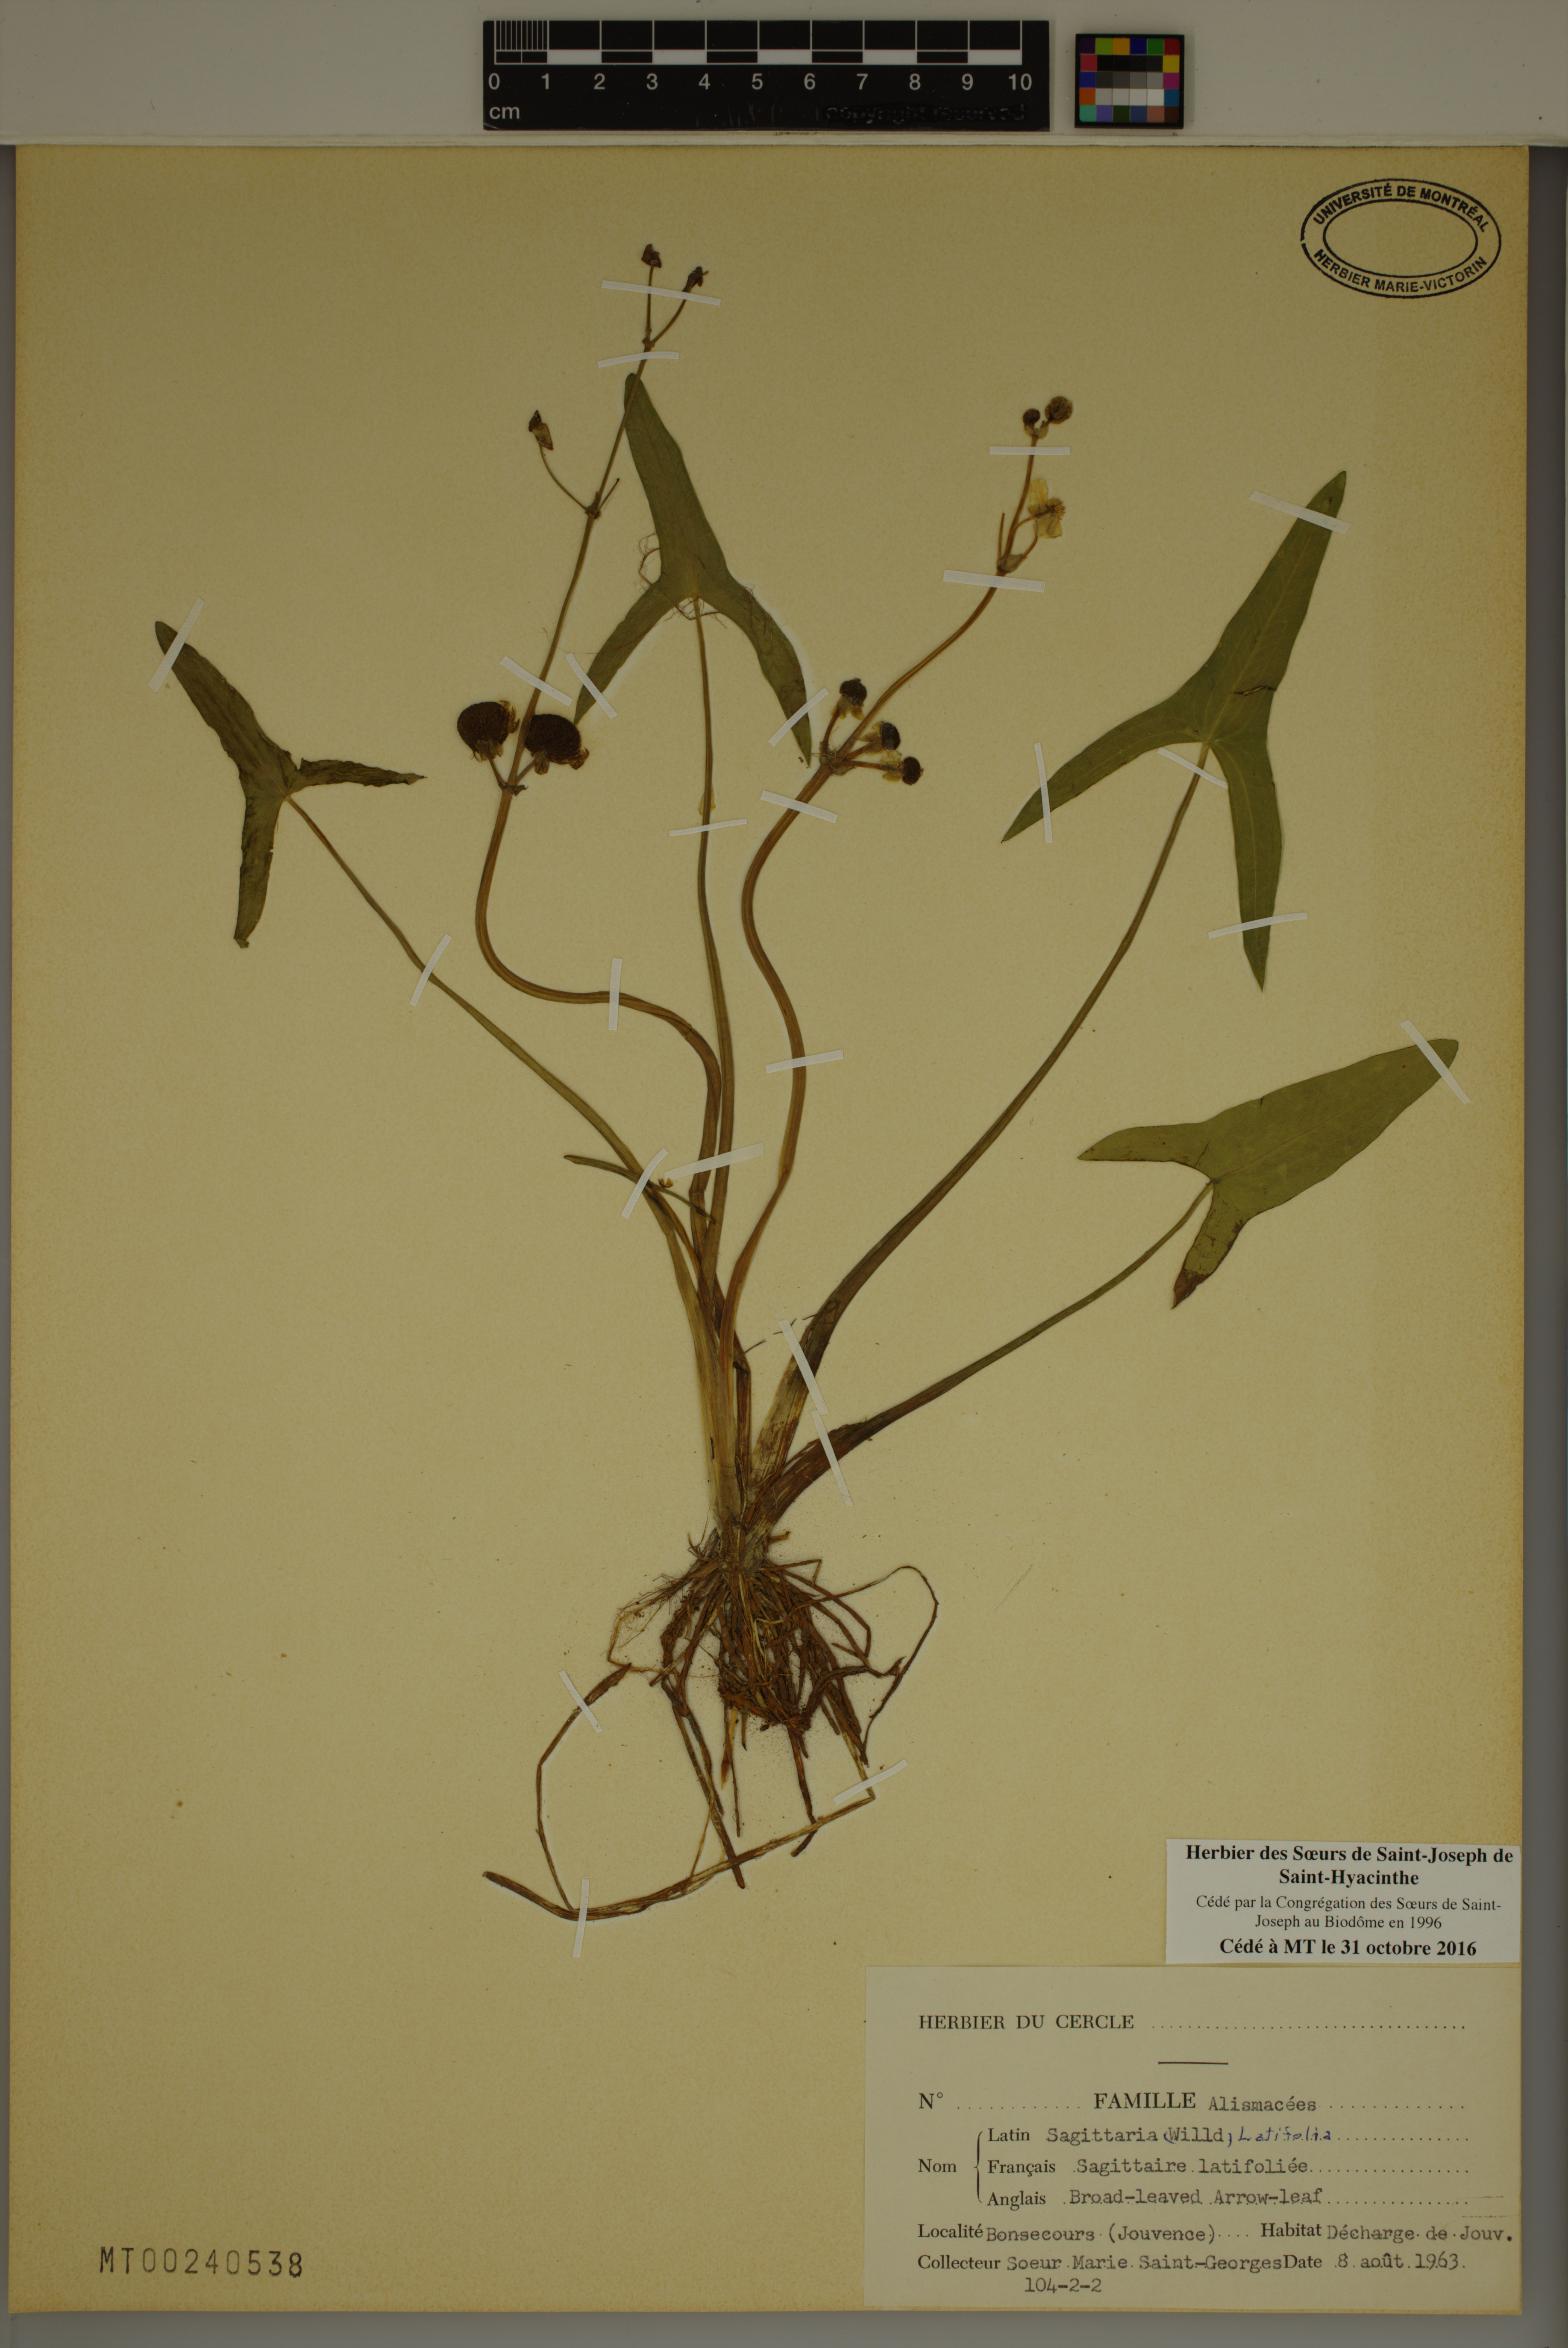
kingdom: Plantae
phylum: Tracheophyta
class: Liliopsida
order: Alismatales
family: Alismataceae
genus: Sagittaria
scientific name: Sagittaria latifolia
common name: Duck-potato
